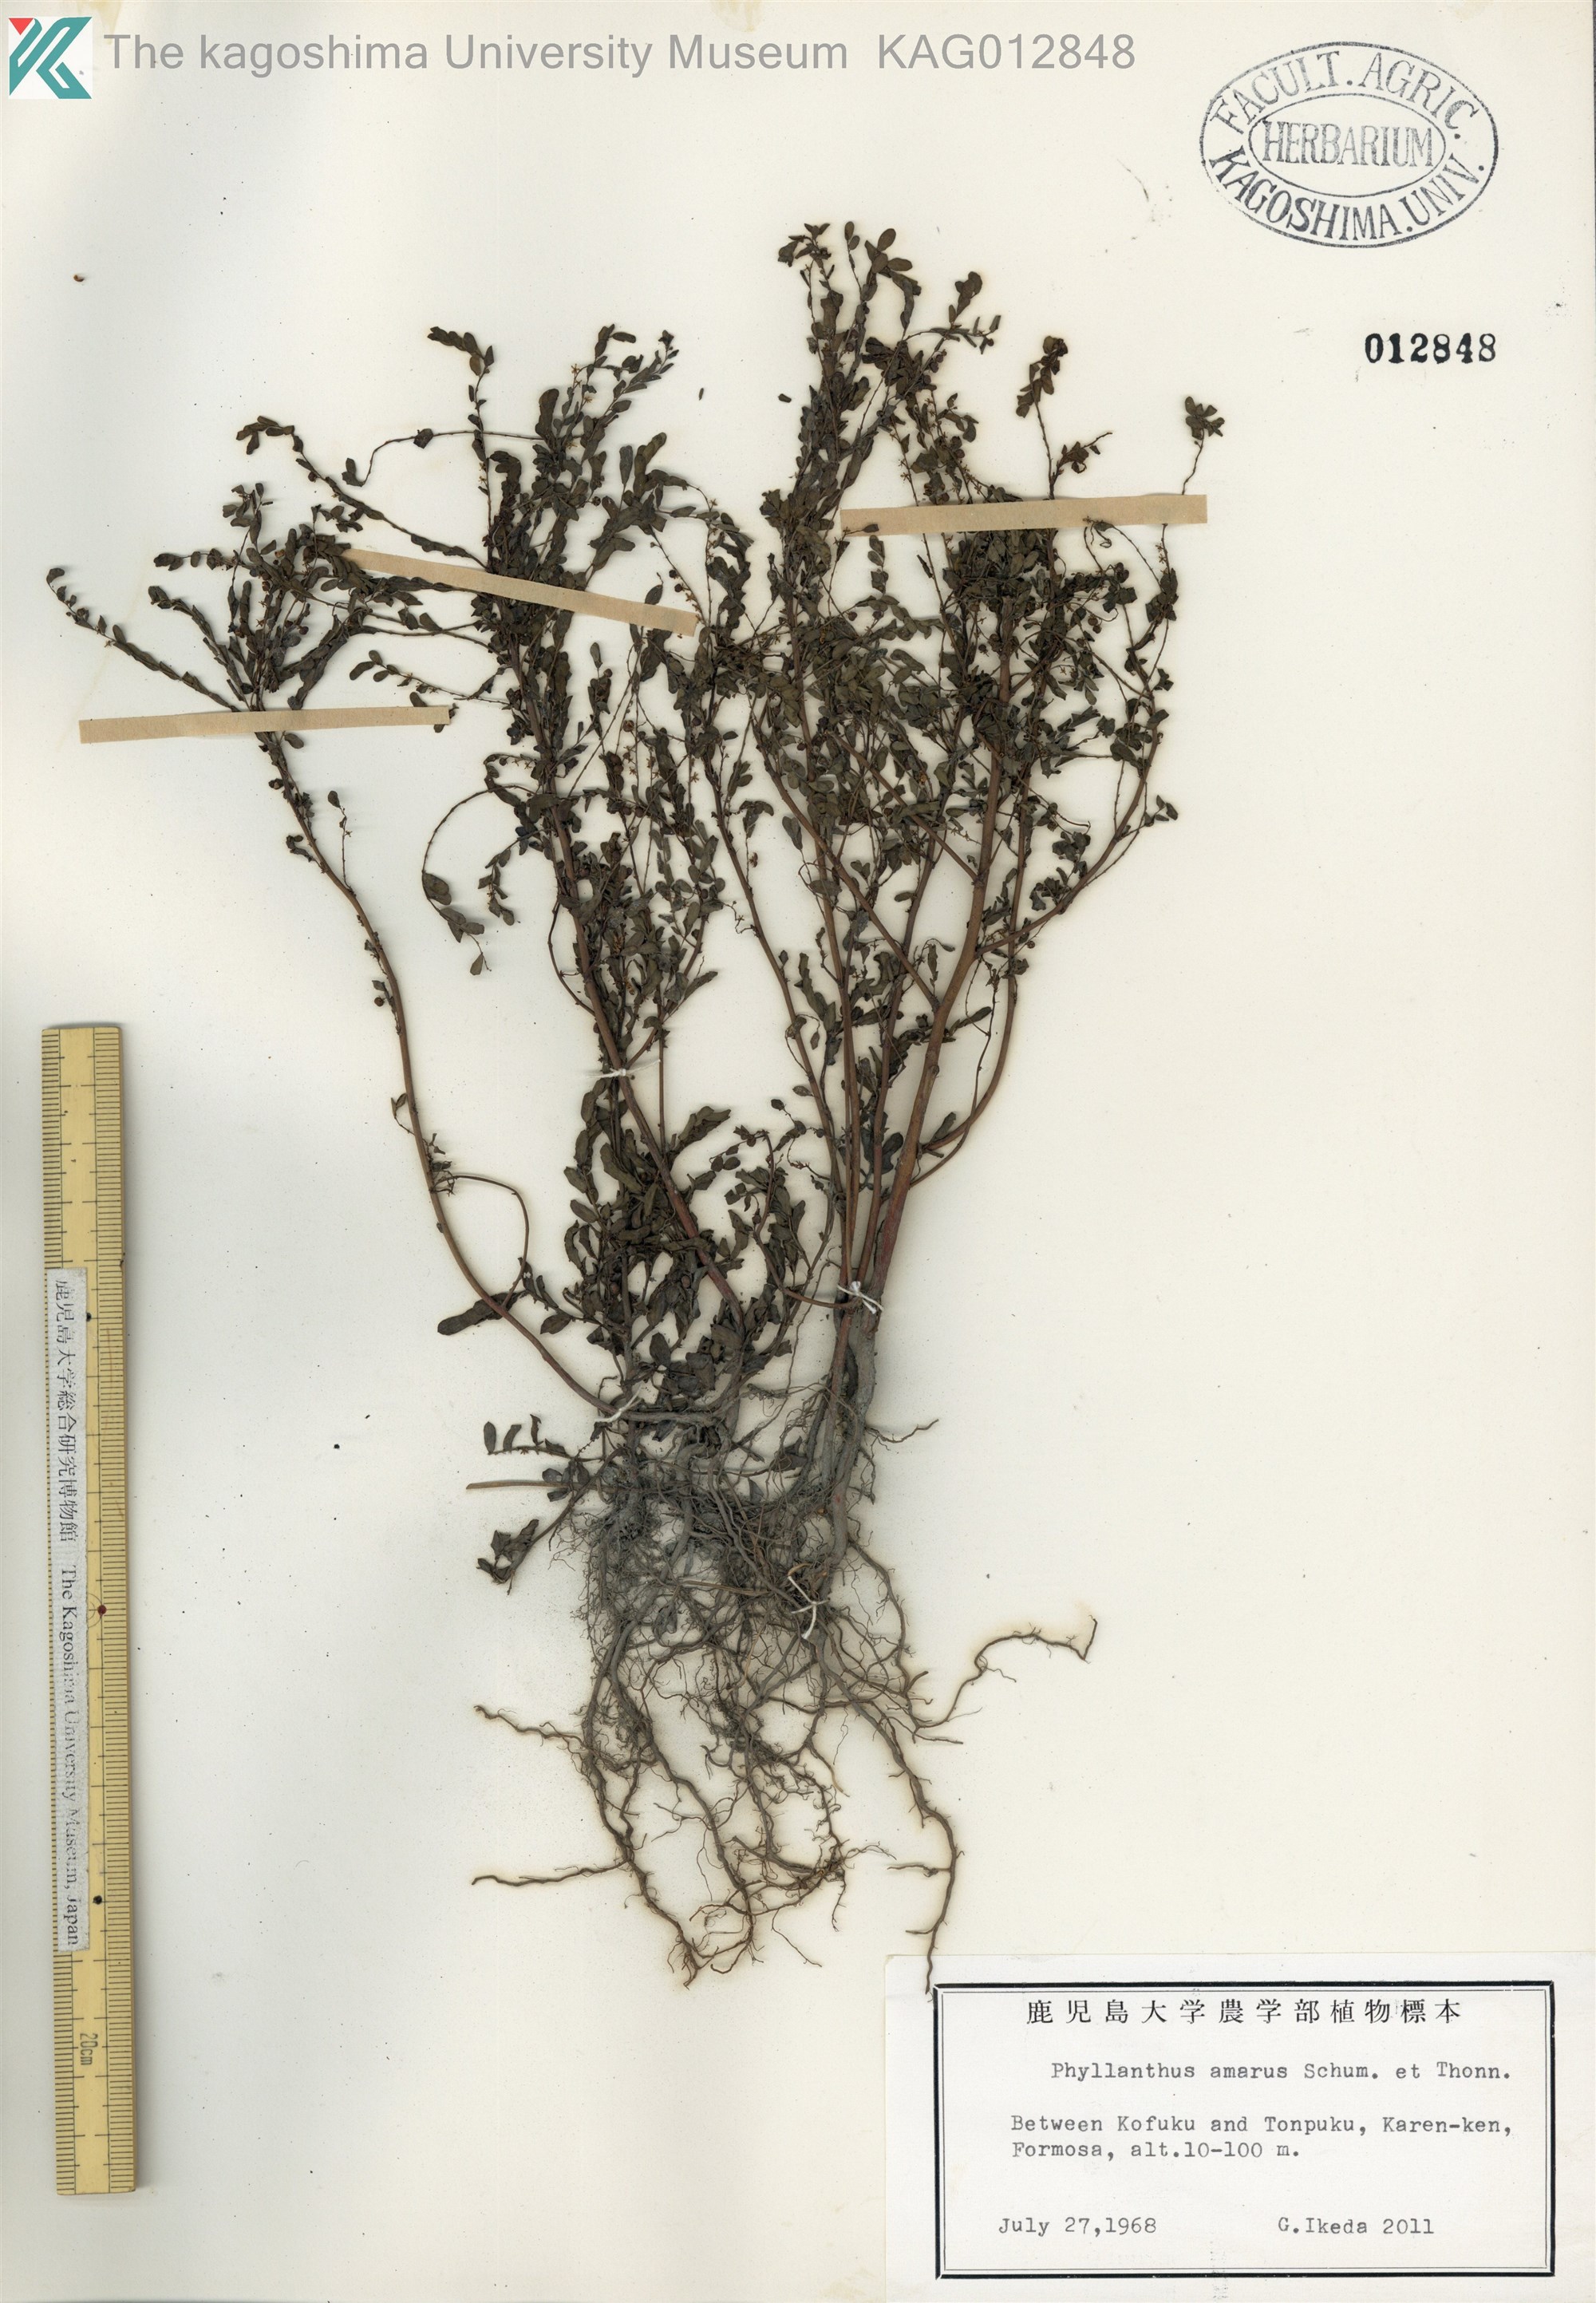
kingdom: Plantae
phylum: Tracheophyta
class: Magnoliopsida
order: Malpighiales
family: Phyllanthaceae
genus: Phyllanthus
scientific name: Phyllanthus amarus
